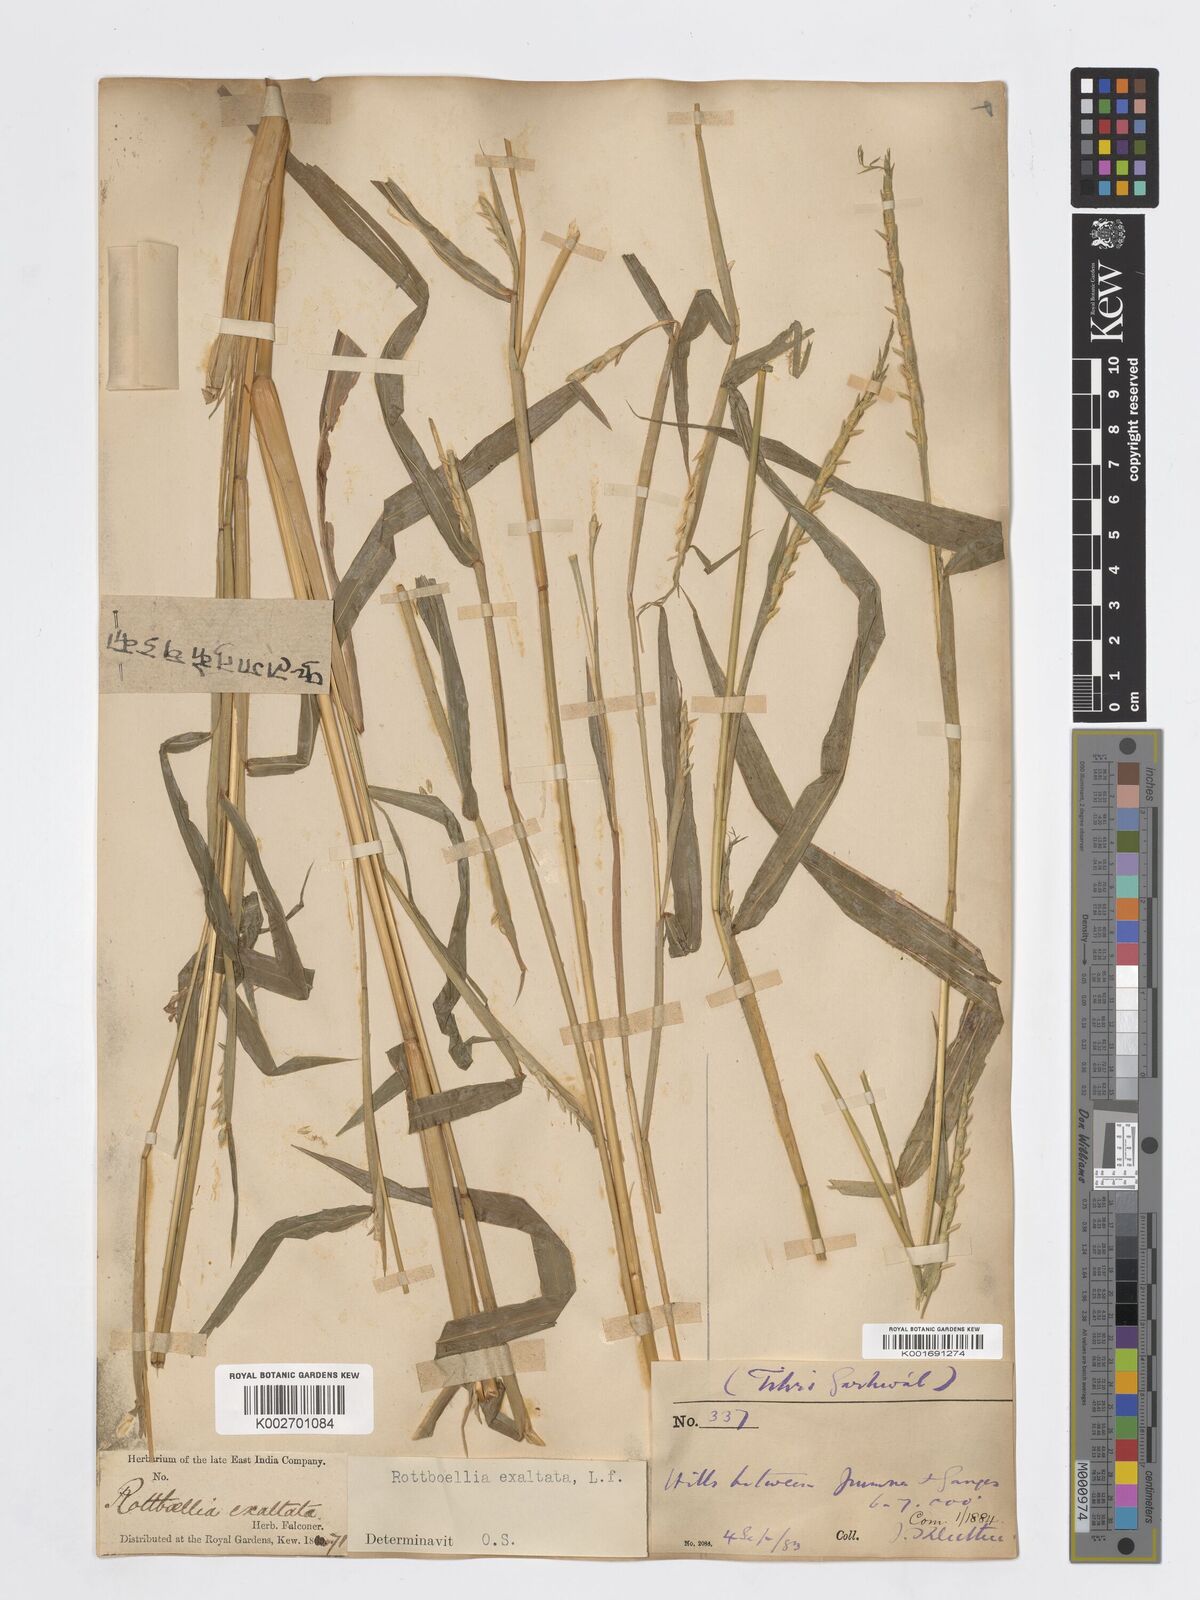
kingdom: Plantae
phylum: Tracheophyta
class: Liliopsida
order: Poales
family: Poaceae
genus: Ophiuros
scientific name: Ophiuros exaltatus
